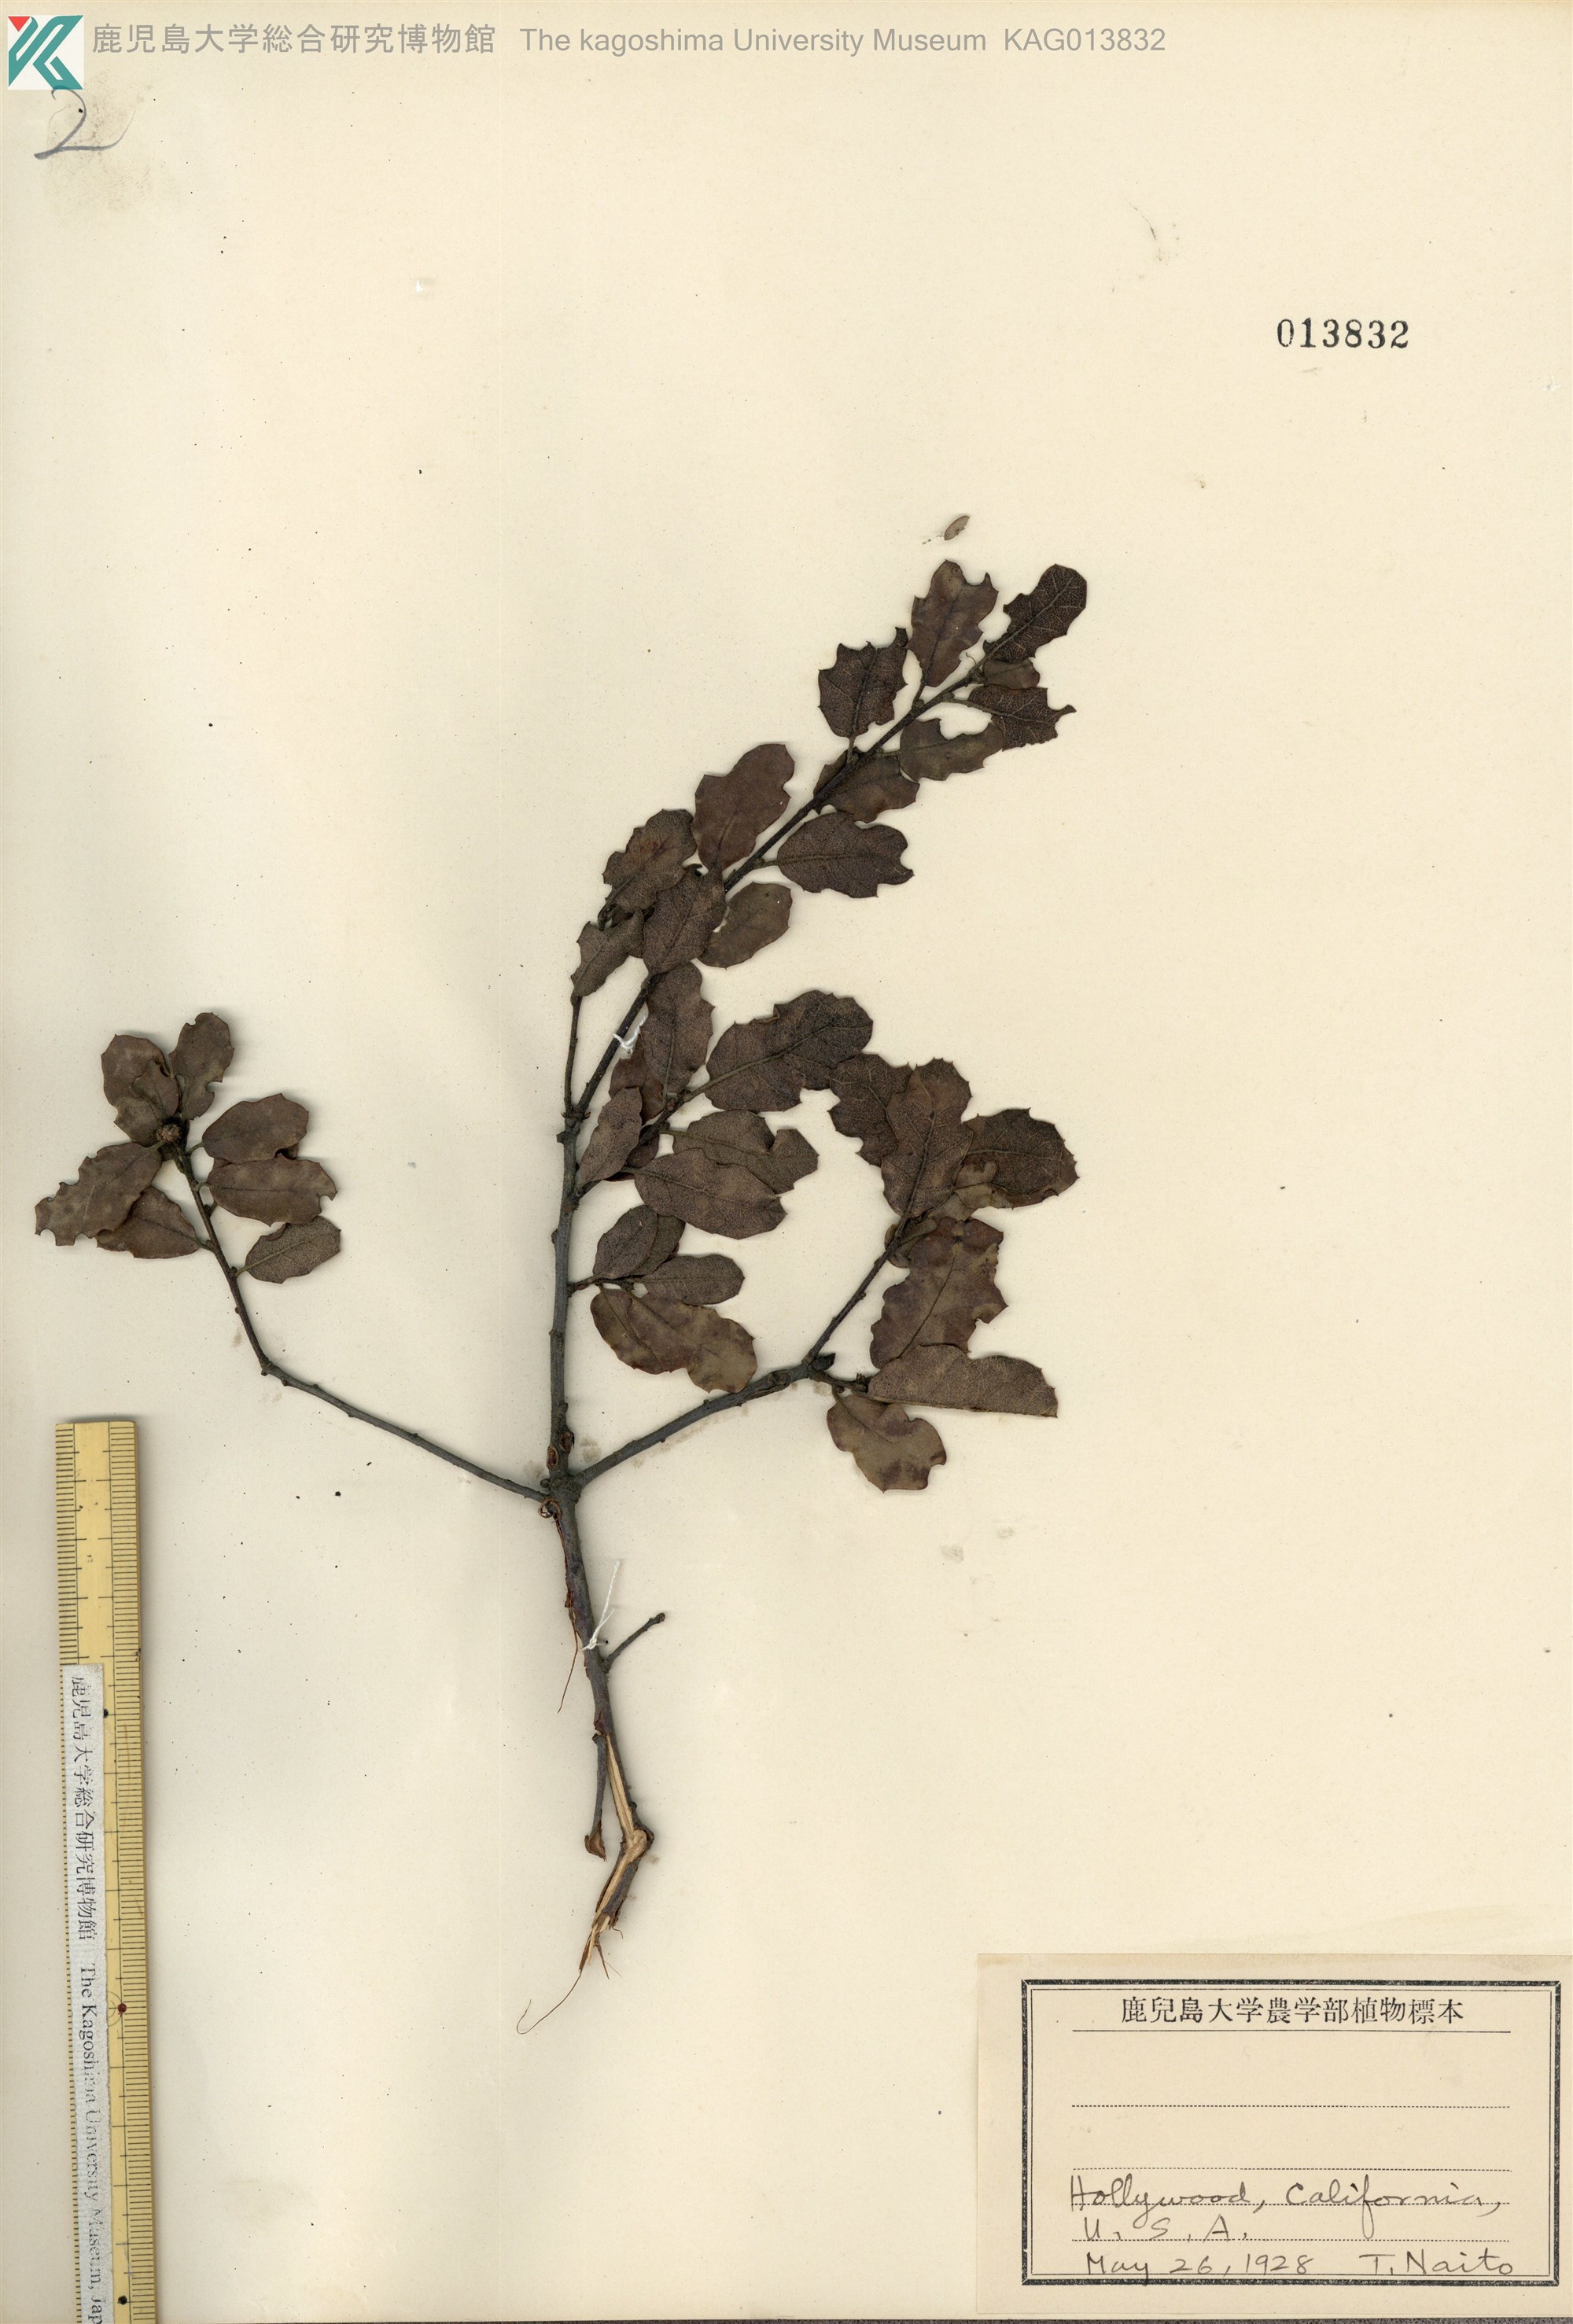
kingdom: Plantae
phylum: Tracheophyta
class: Magnoliopsida
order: Fagales
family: Fagaceae
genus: Quercus
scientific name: Quercus douglasii
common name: Blue oak
